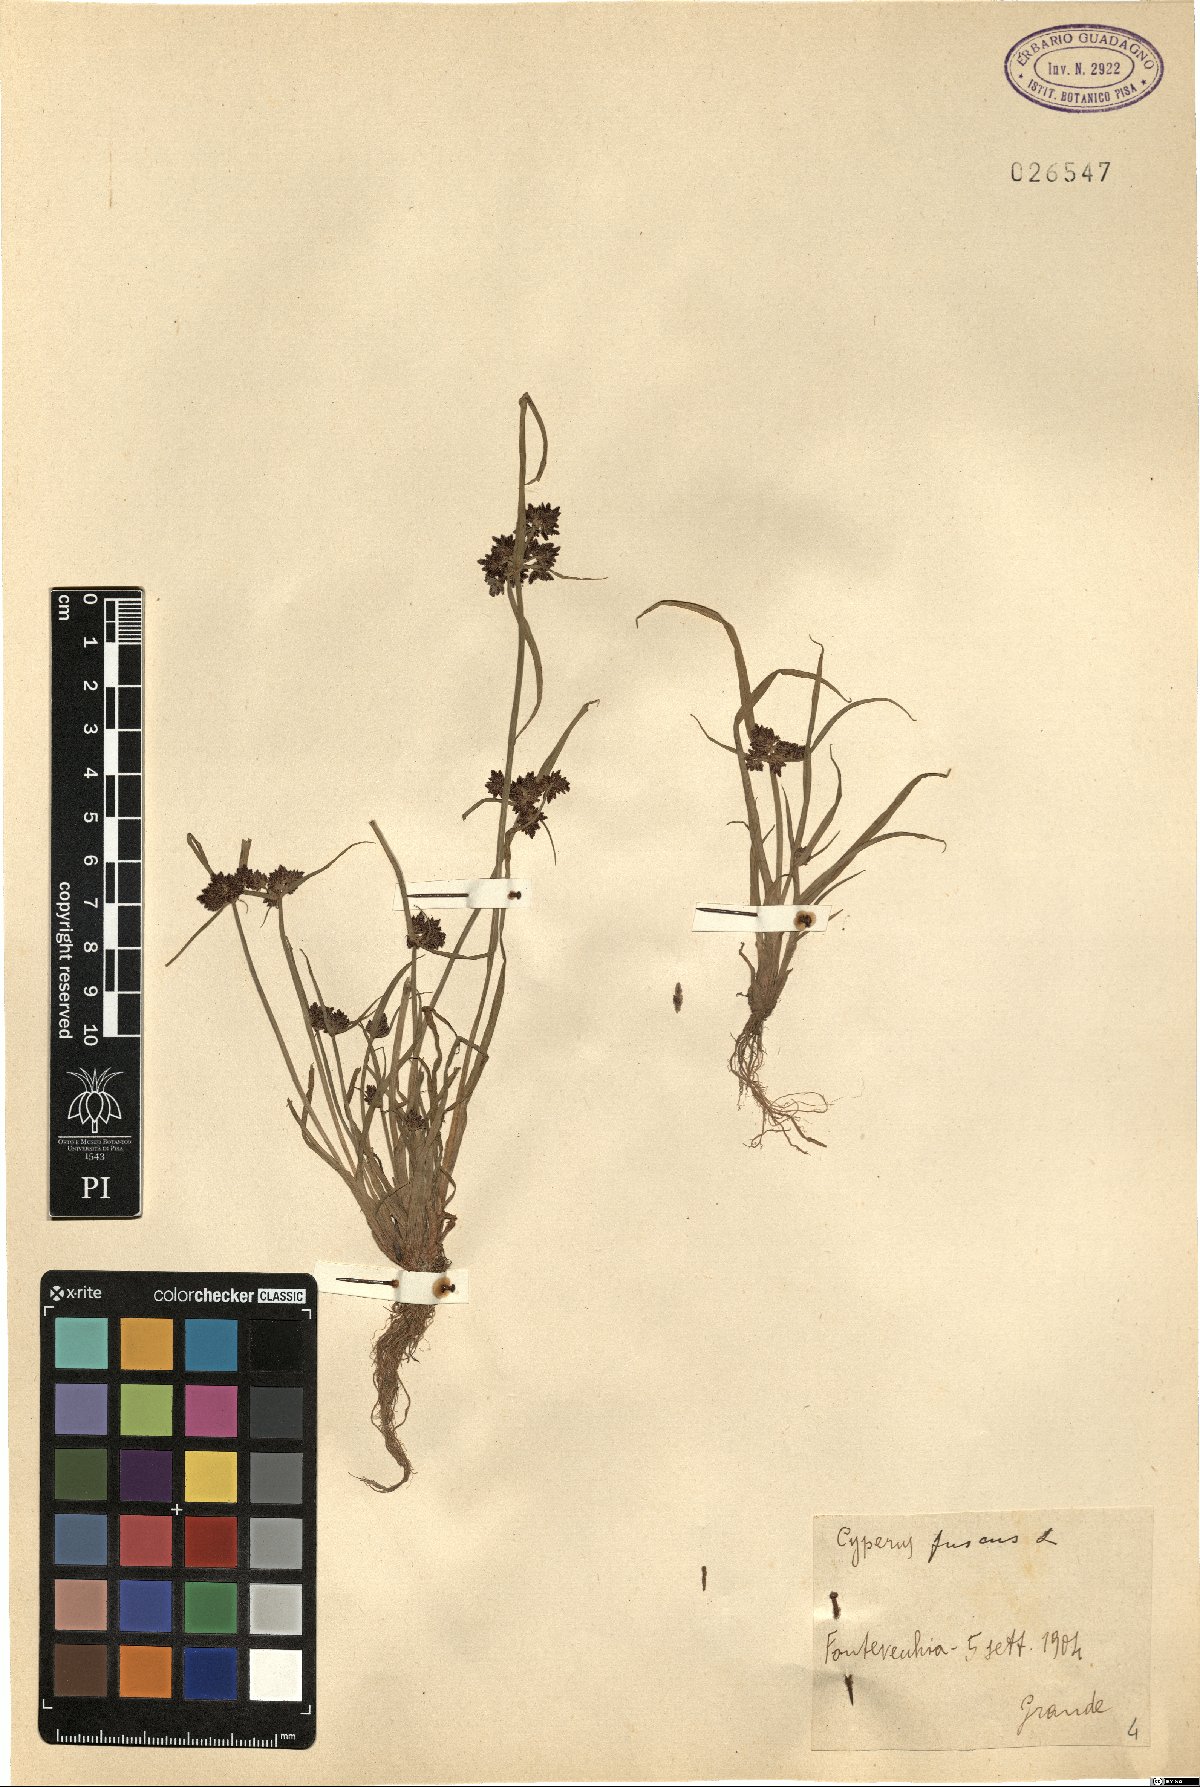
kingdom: Plantae
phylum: Tracheophyta
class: Liliopsida
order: Poales
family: Cyperaceae
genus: Cyperus
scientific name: Cyperus fuscus
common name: Brown galingale
